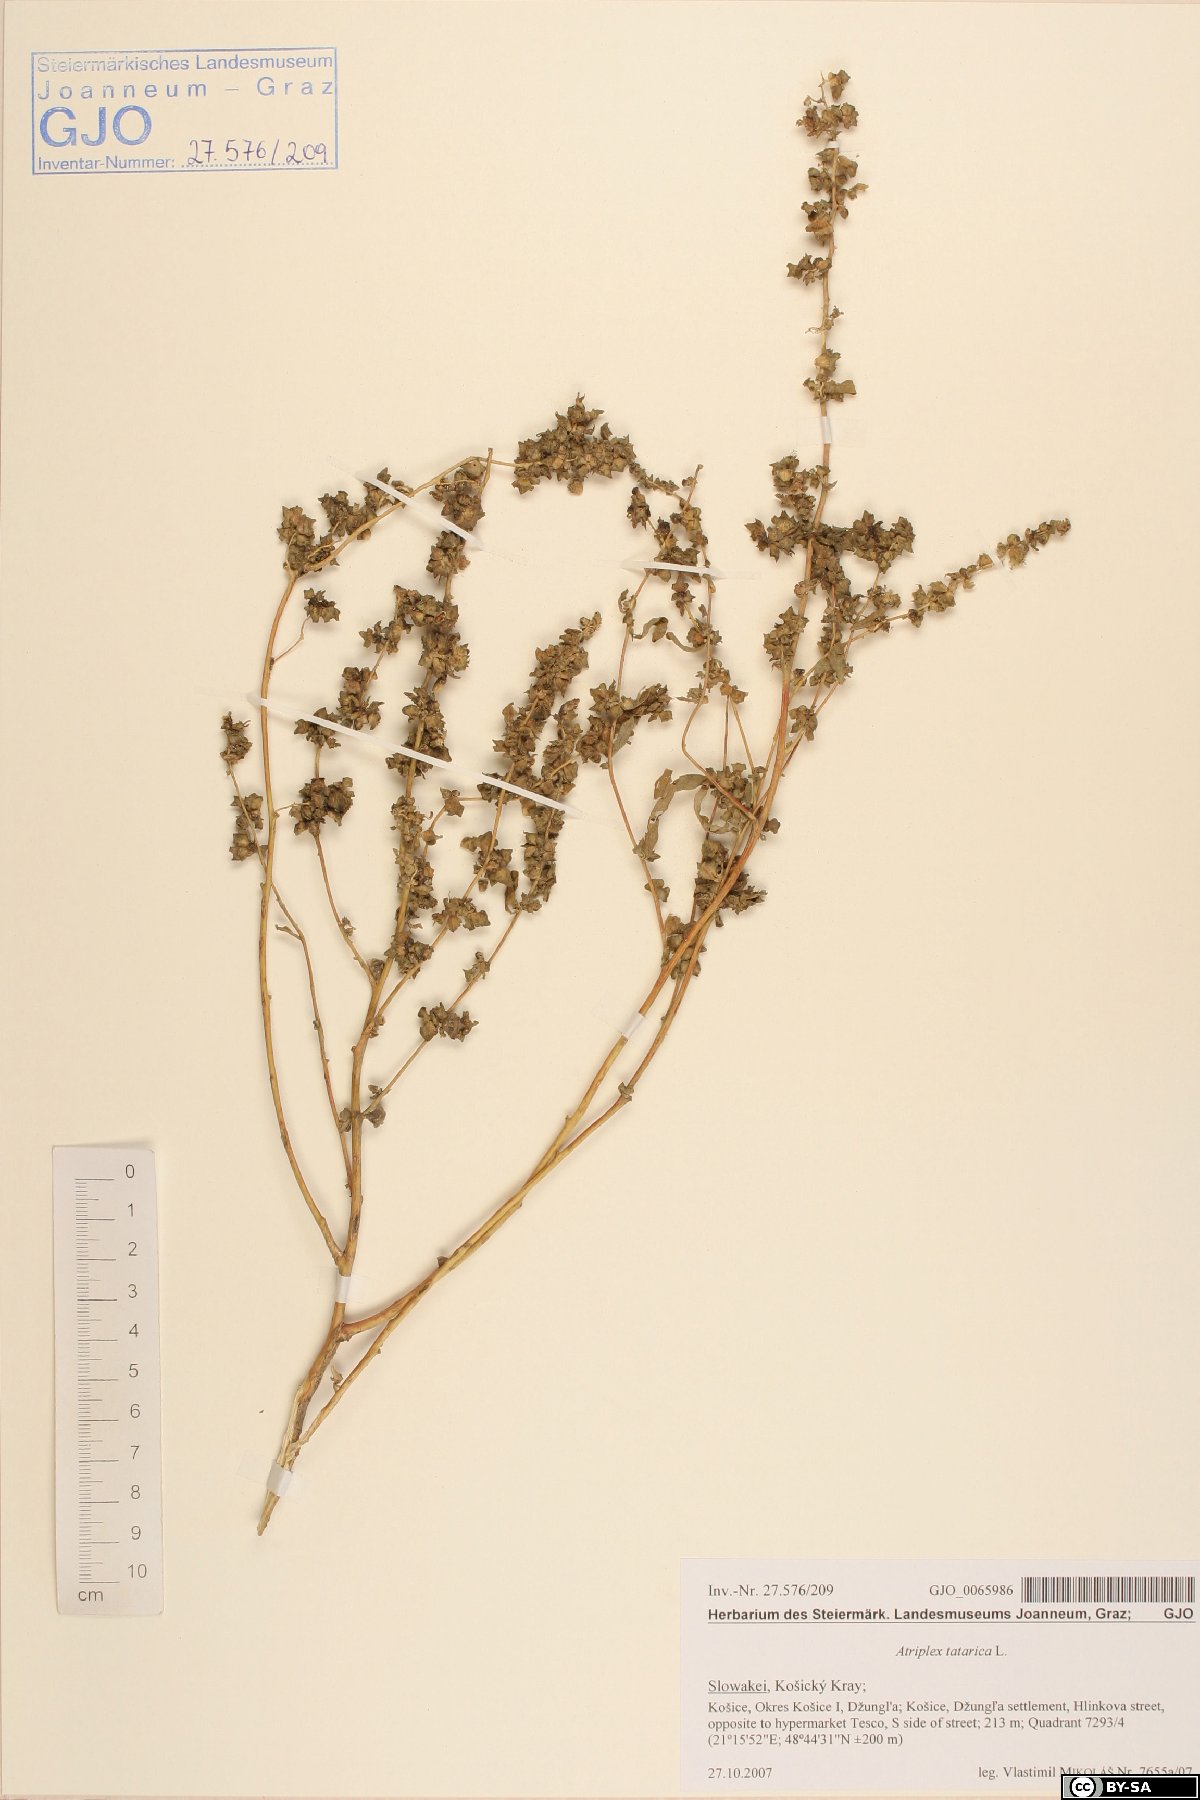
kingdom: Plantae
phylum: Tracheophyta
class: Magnoliopsida
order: Caryophyllales
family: Amaranthaceae
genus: Atriplex
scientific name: Atriplex tatarica
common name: Tatarian orache
